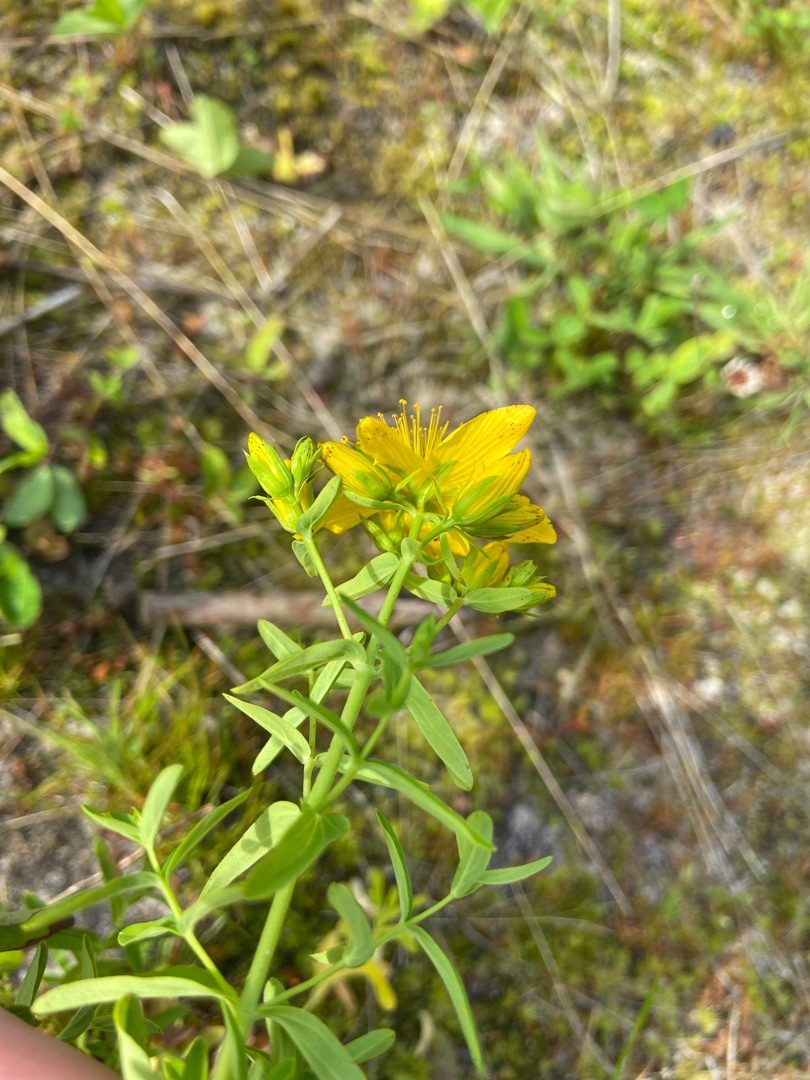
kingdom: Plantae
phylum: Tracheophyta
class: Magnoliopsida
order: Malpighiales
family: Hypericaceae
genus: Hypericum
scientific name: Hypericum perforatum
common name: Prikbladet perikon
